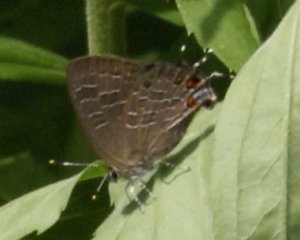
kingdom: Animalia
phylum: Arthropoda
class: Insecta
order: Lepidoptera
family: Lycaenidae
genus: Satyrium
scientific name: Satyrium liparops
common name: Striped Hairstreak
